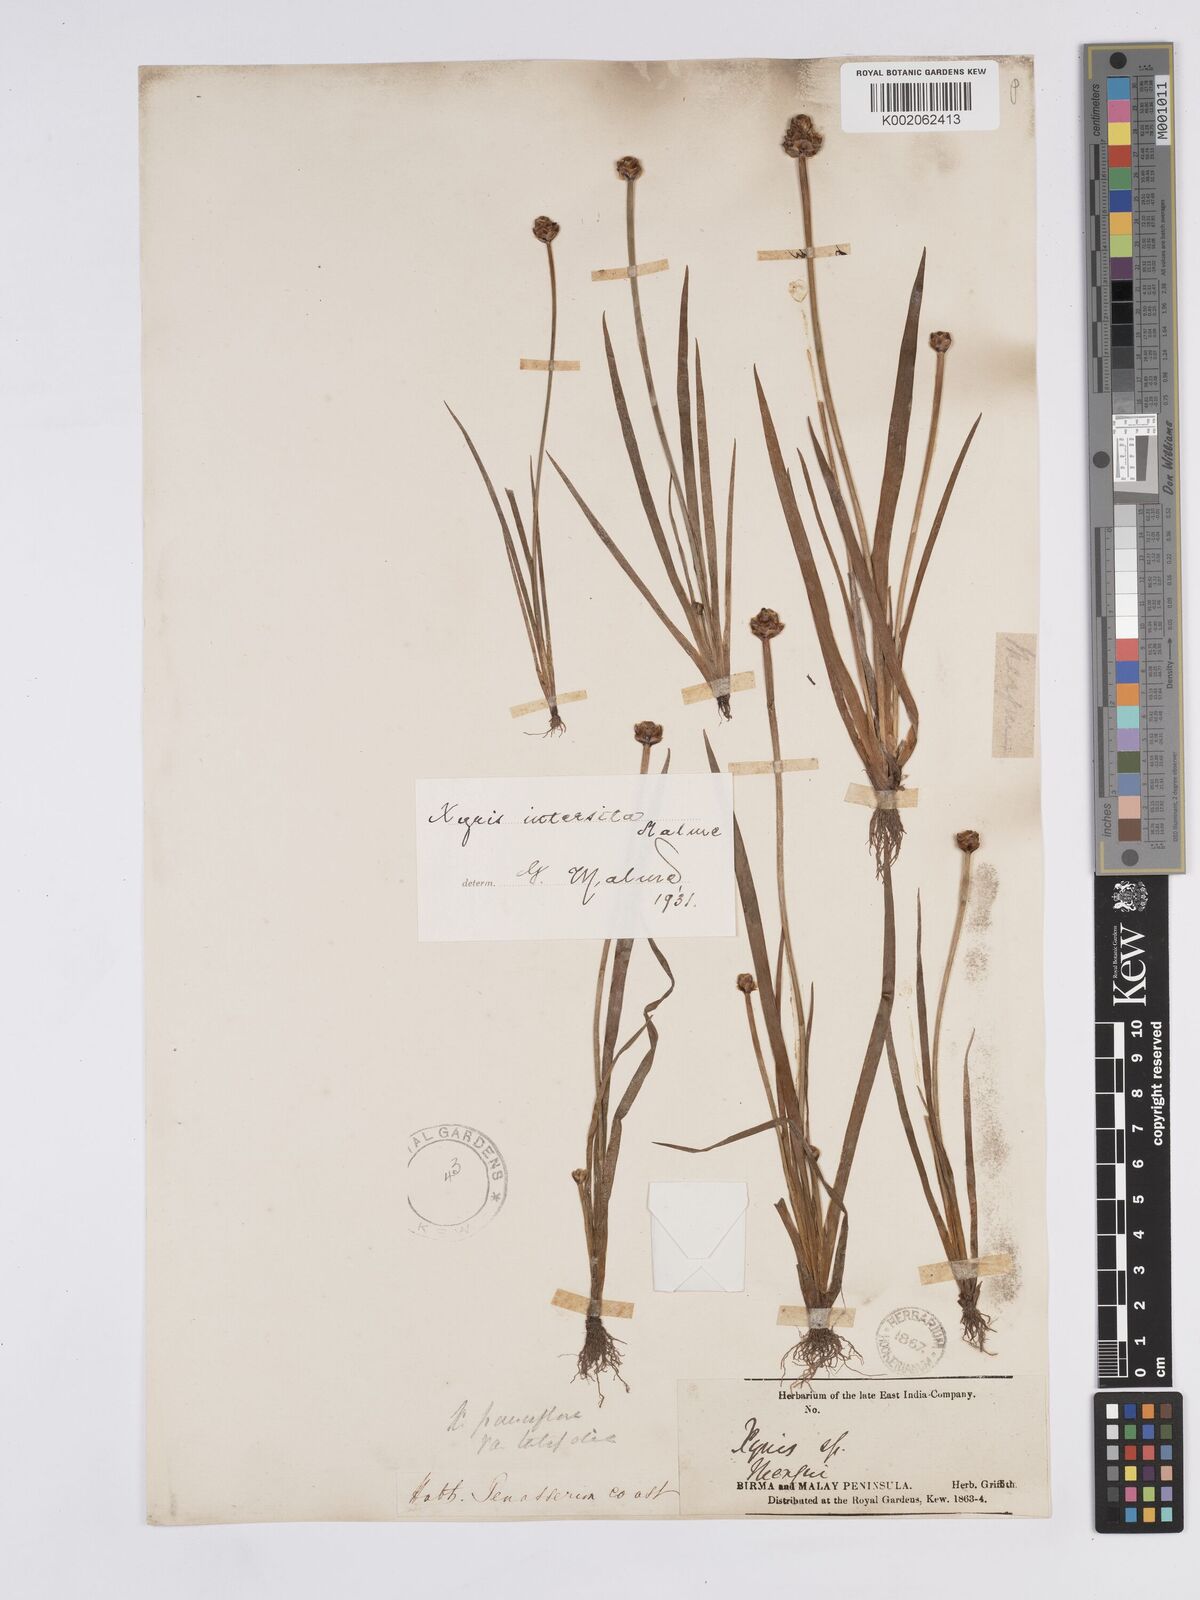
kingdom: Plantae
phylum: Tracheophyta
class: Liliopsida
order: Poales
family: Xyridaceae
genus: Xyris
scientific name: Xyris intersita
